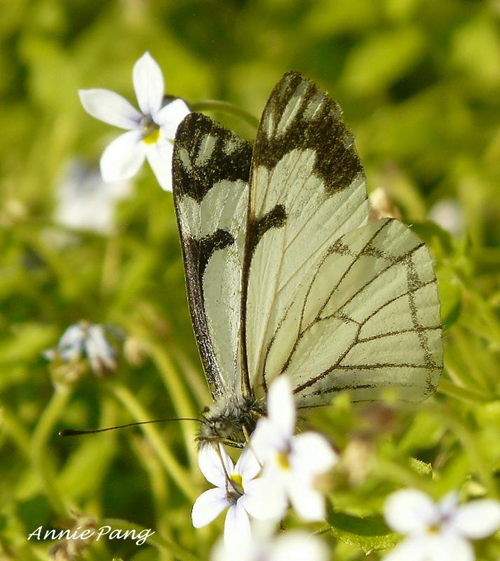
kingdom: Animalia
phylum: Arthropoda
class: Insecta
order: Lepidoptera
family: Pieridae
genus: Neophasia
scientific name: Neophasia menapia
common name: Pine White
